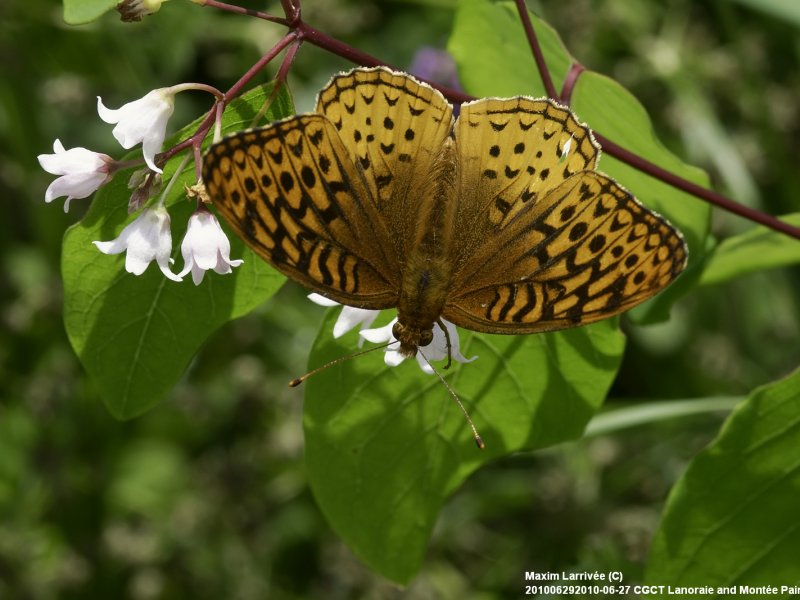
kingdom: Animalia
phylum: Arthropoda
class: Insecta
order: Lepidoptera
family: Nymphalidae
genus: Speyeria
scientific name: Speyeria cybele
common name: Great Spangled Fritillary
